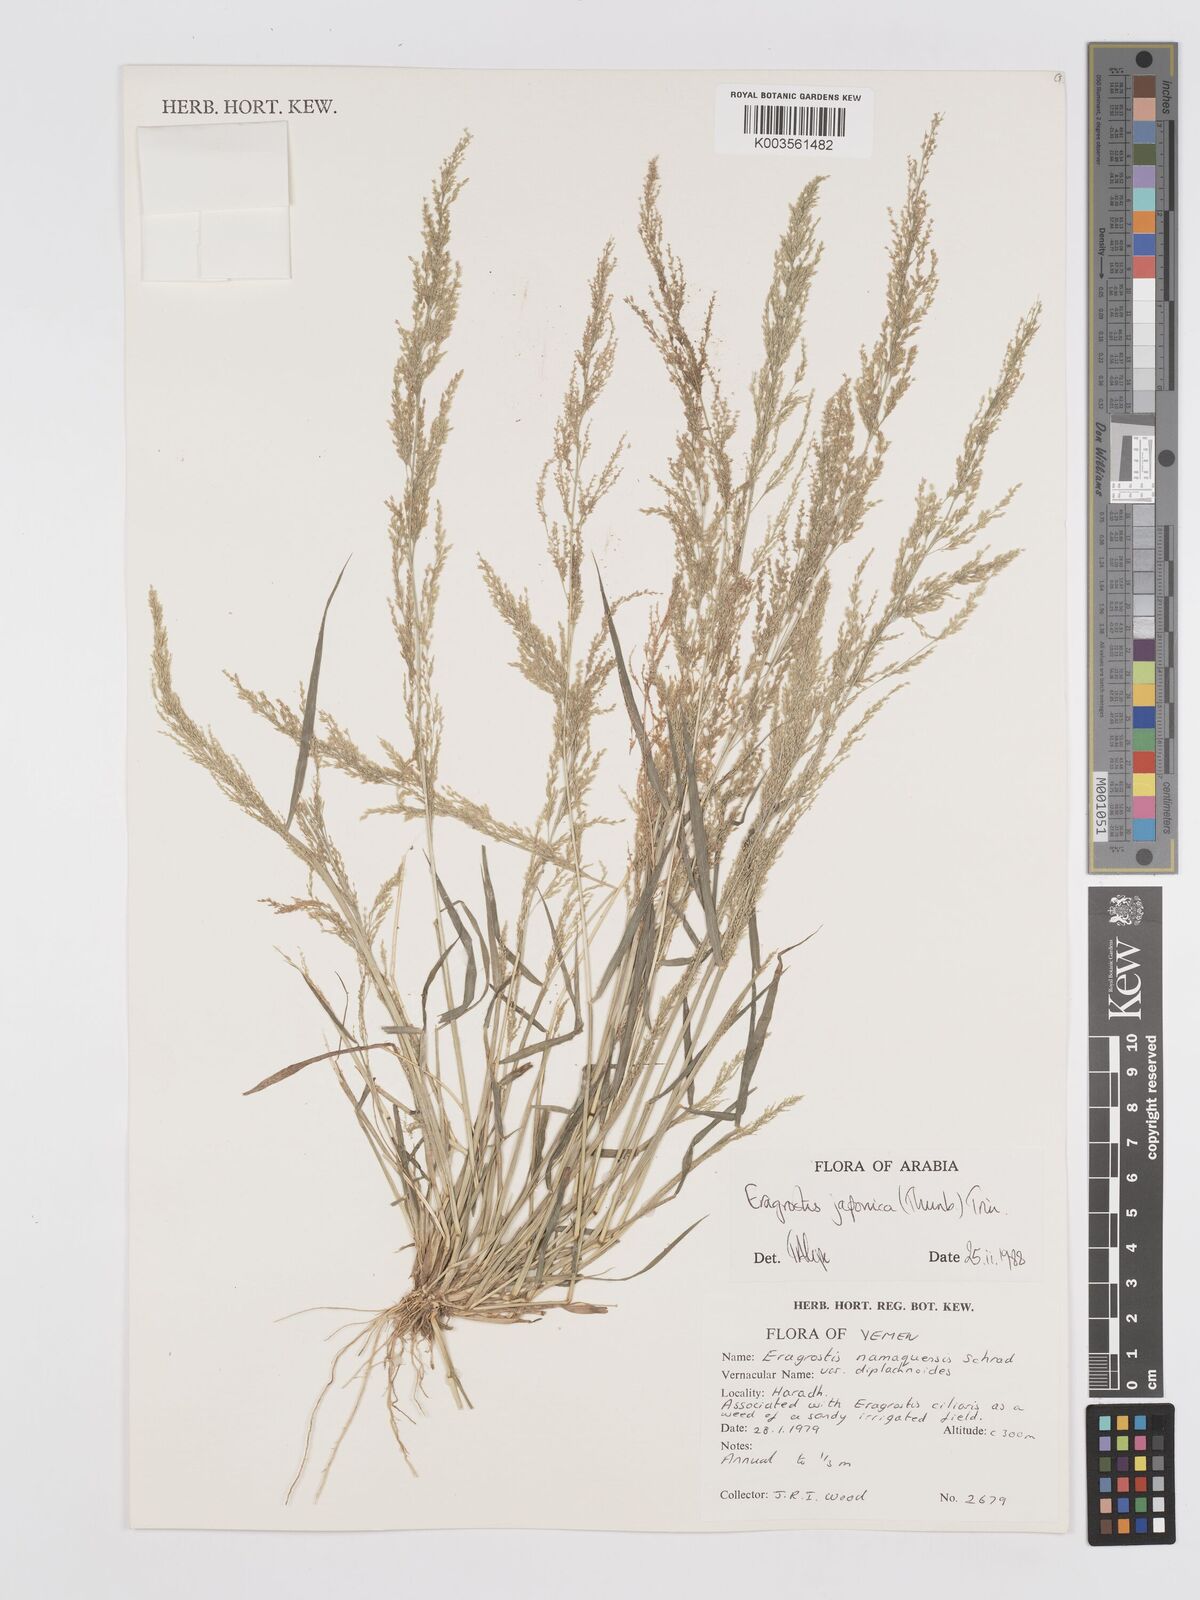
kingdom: Plantae
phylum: Tracheophyta
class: Liliopsida
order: Poales
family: Poaceae
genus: Eragrostis
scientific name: Eragrostis japonica
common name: Pond lovegrass
